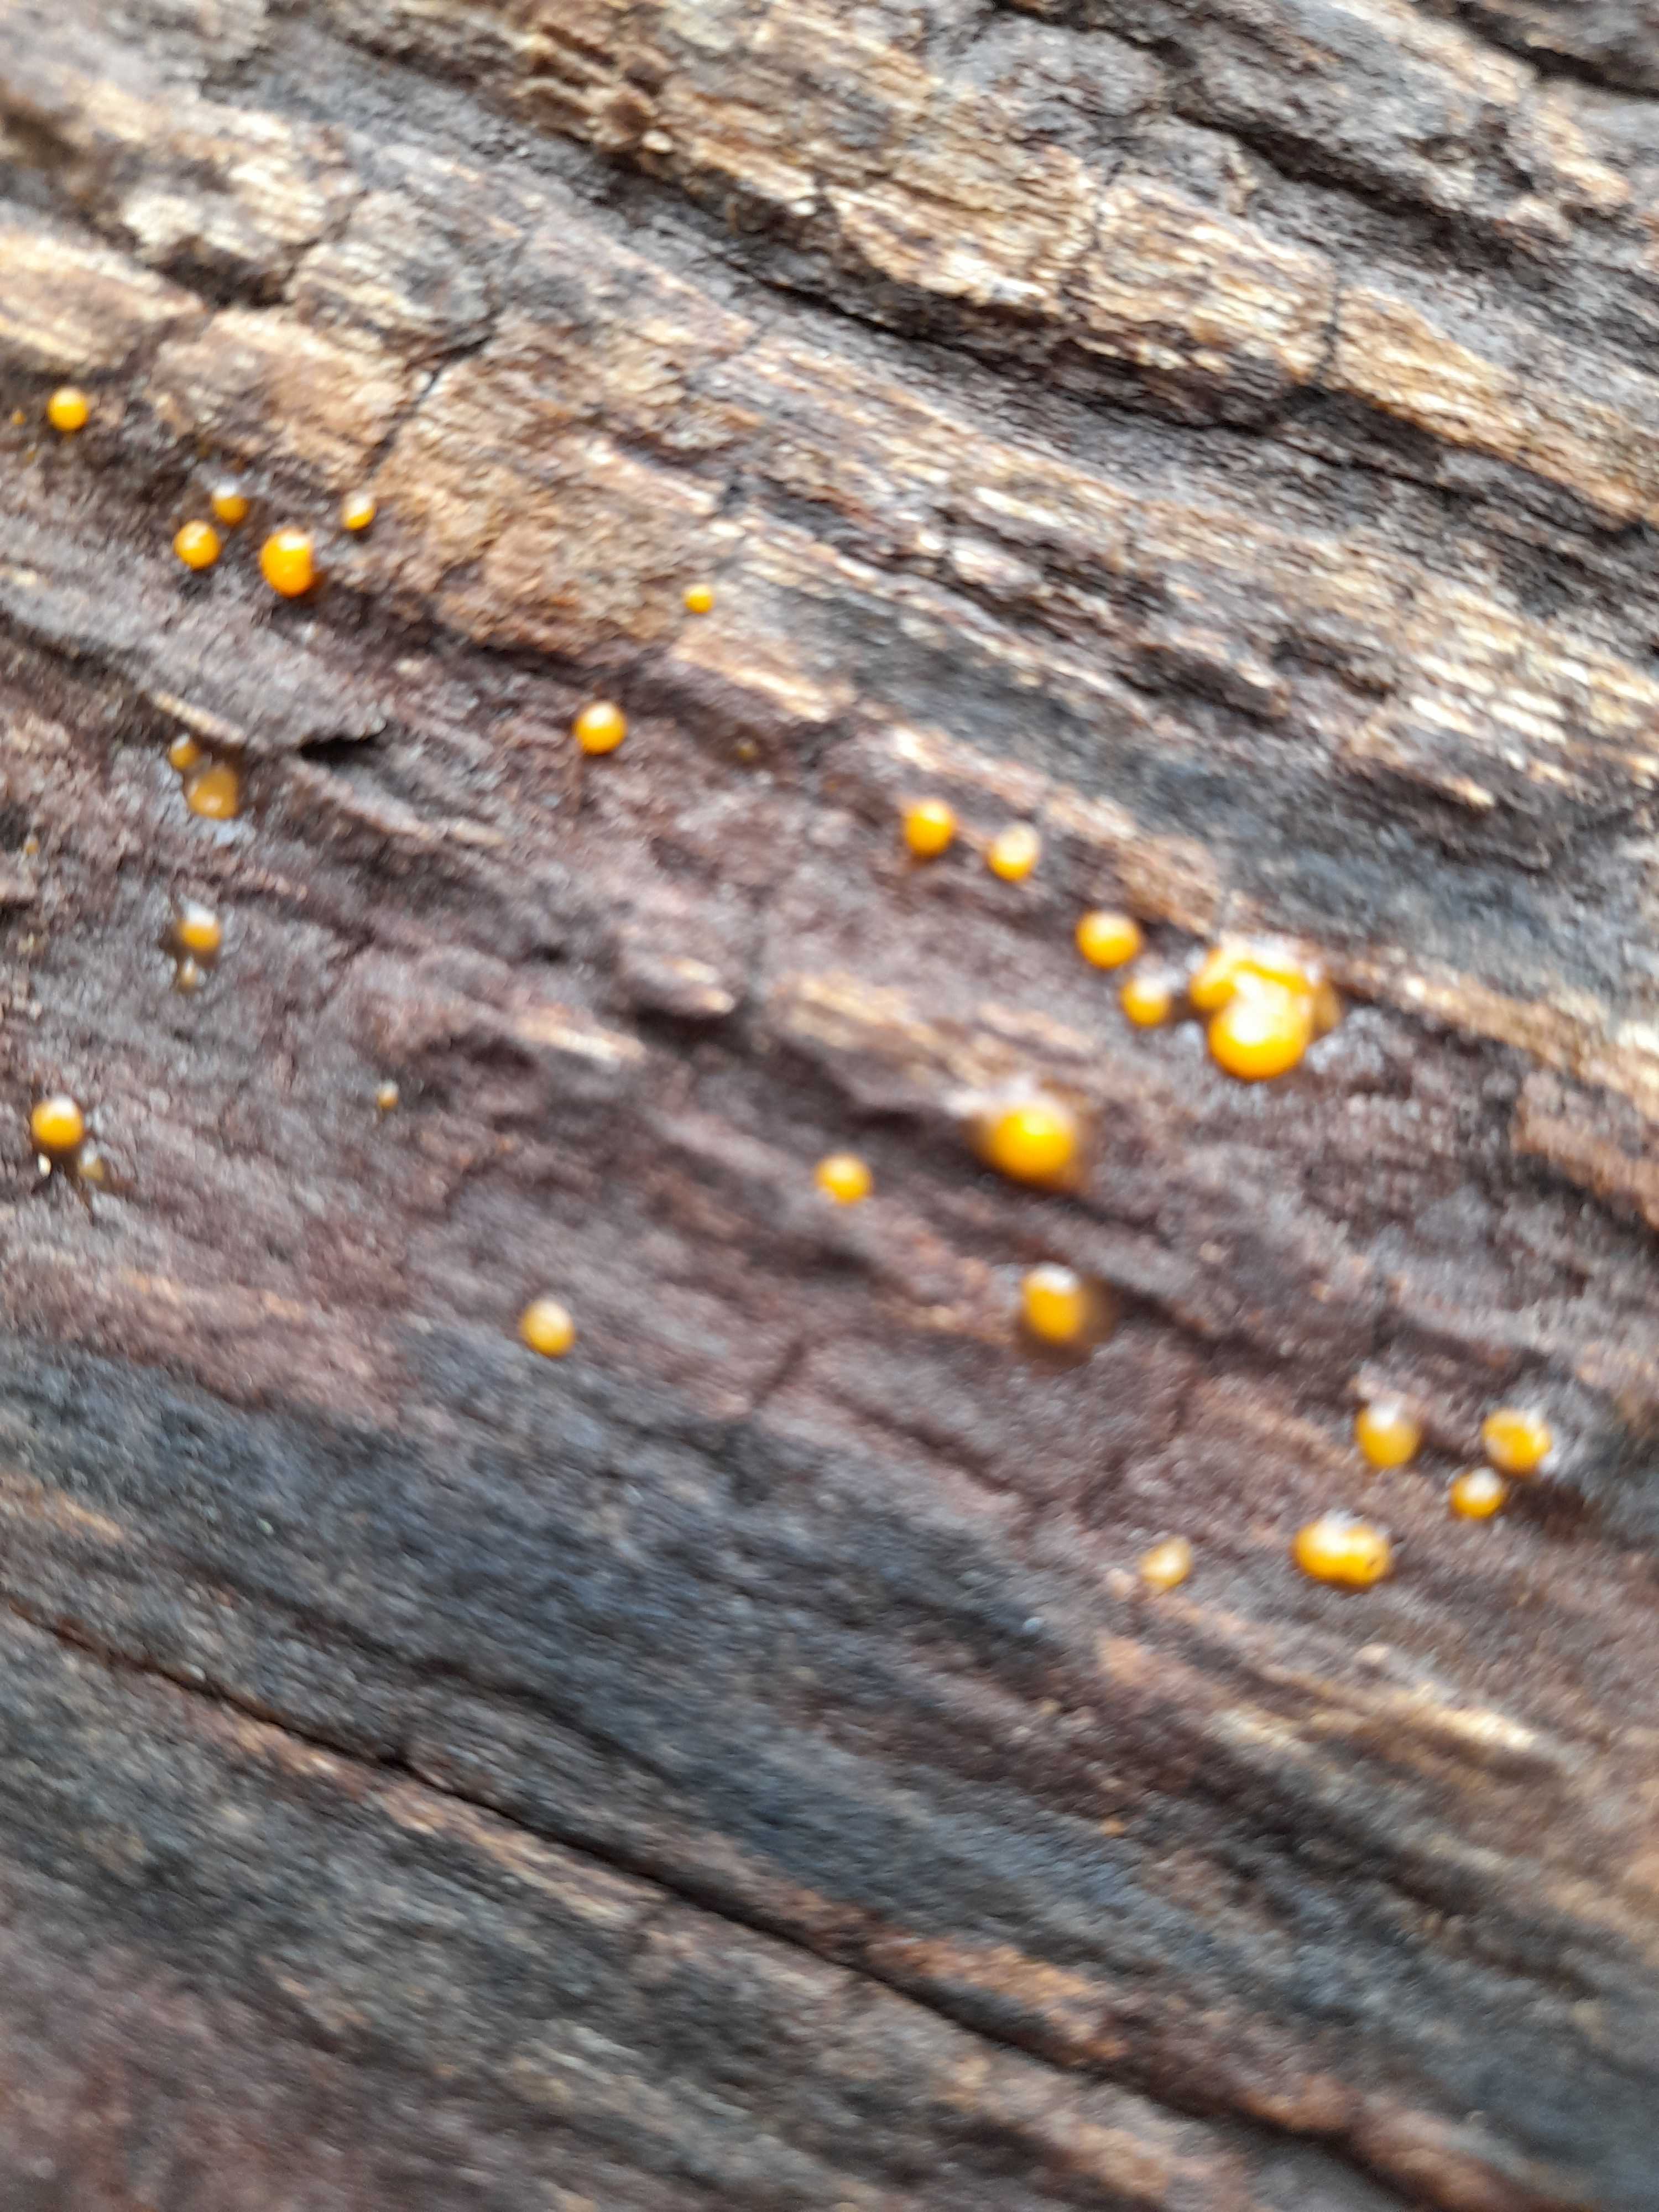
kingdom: Fungi
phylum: Basidiomycota
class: Dacrymycetes
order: Dacrymycetales
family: Dacrymycetaceae
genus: Dacrymyces
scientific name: Dacrymyces stillatus
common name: almindelig tåresvamp
